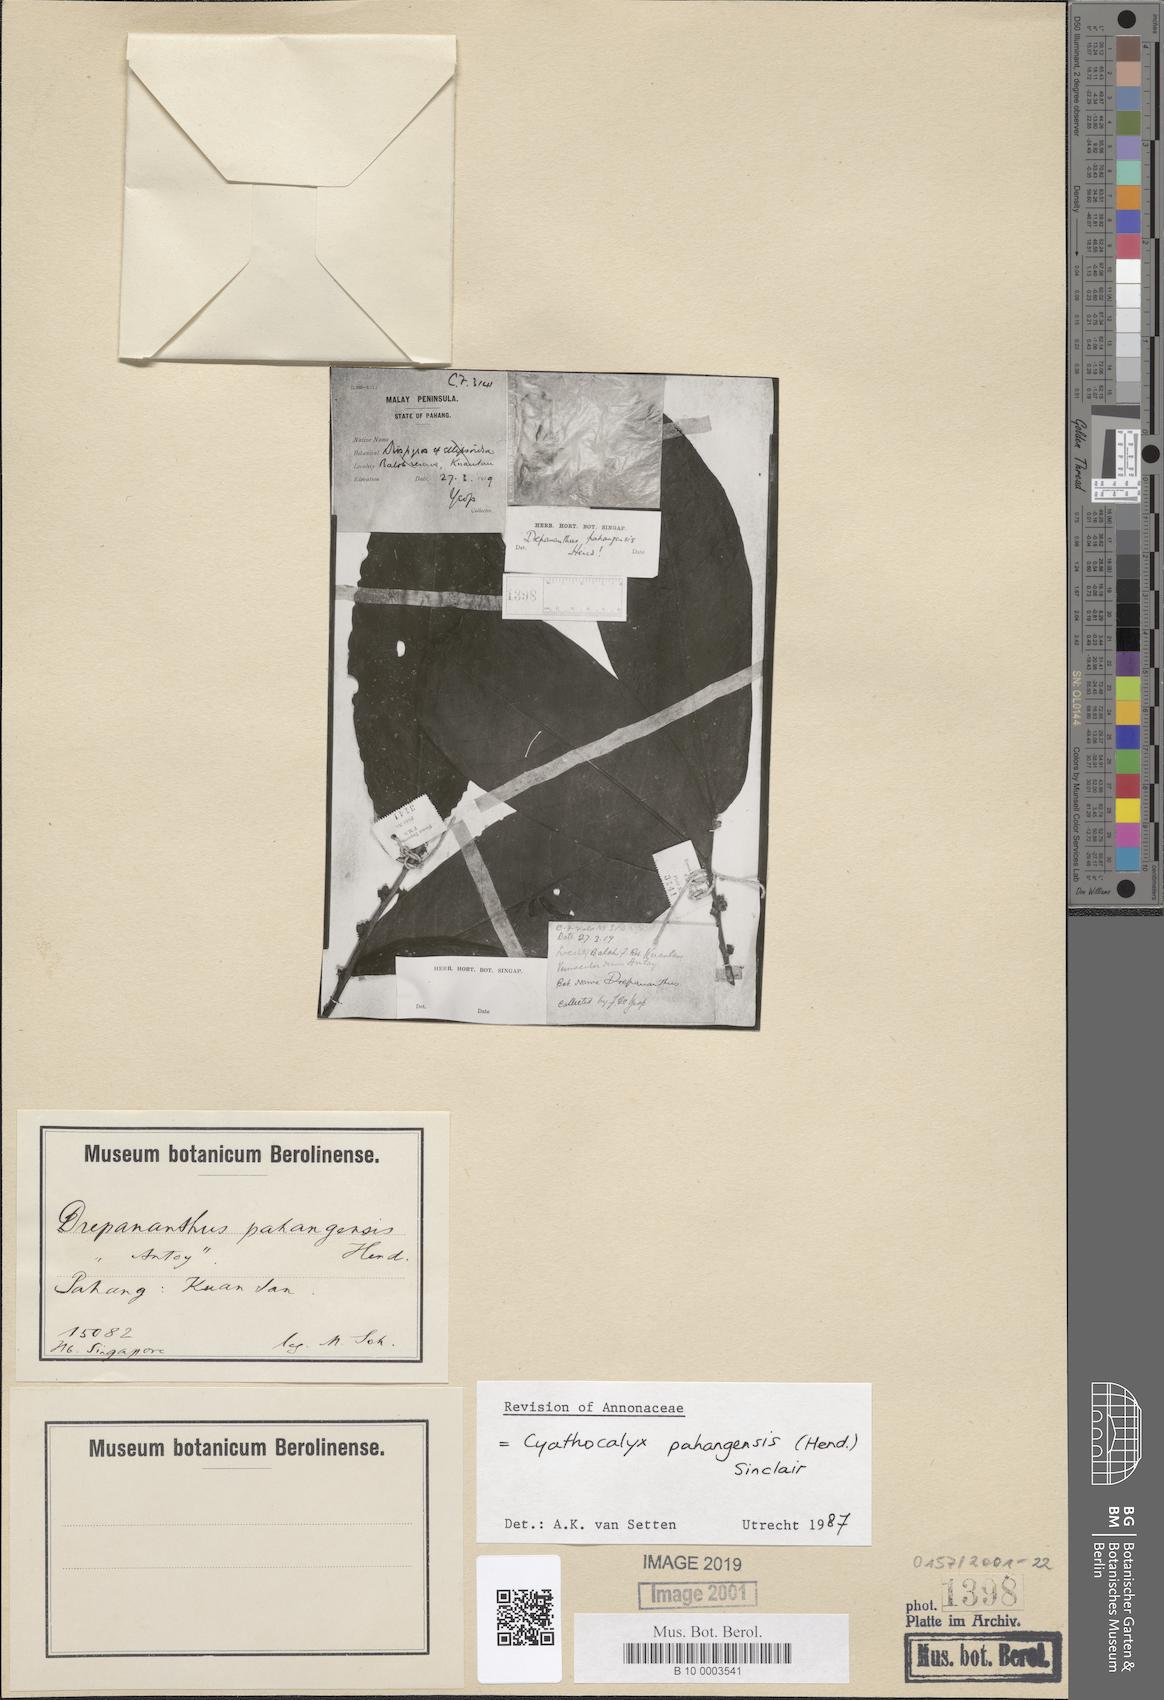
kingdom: Plantae
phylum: Tracheophyta
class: Magnoliopsida
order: Magnoliales
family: Annonaceae
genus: Drepananthus
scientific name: Drepananthus pahangensis
